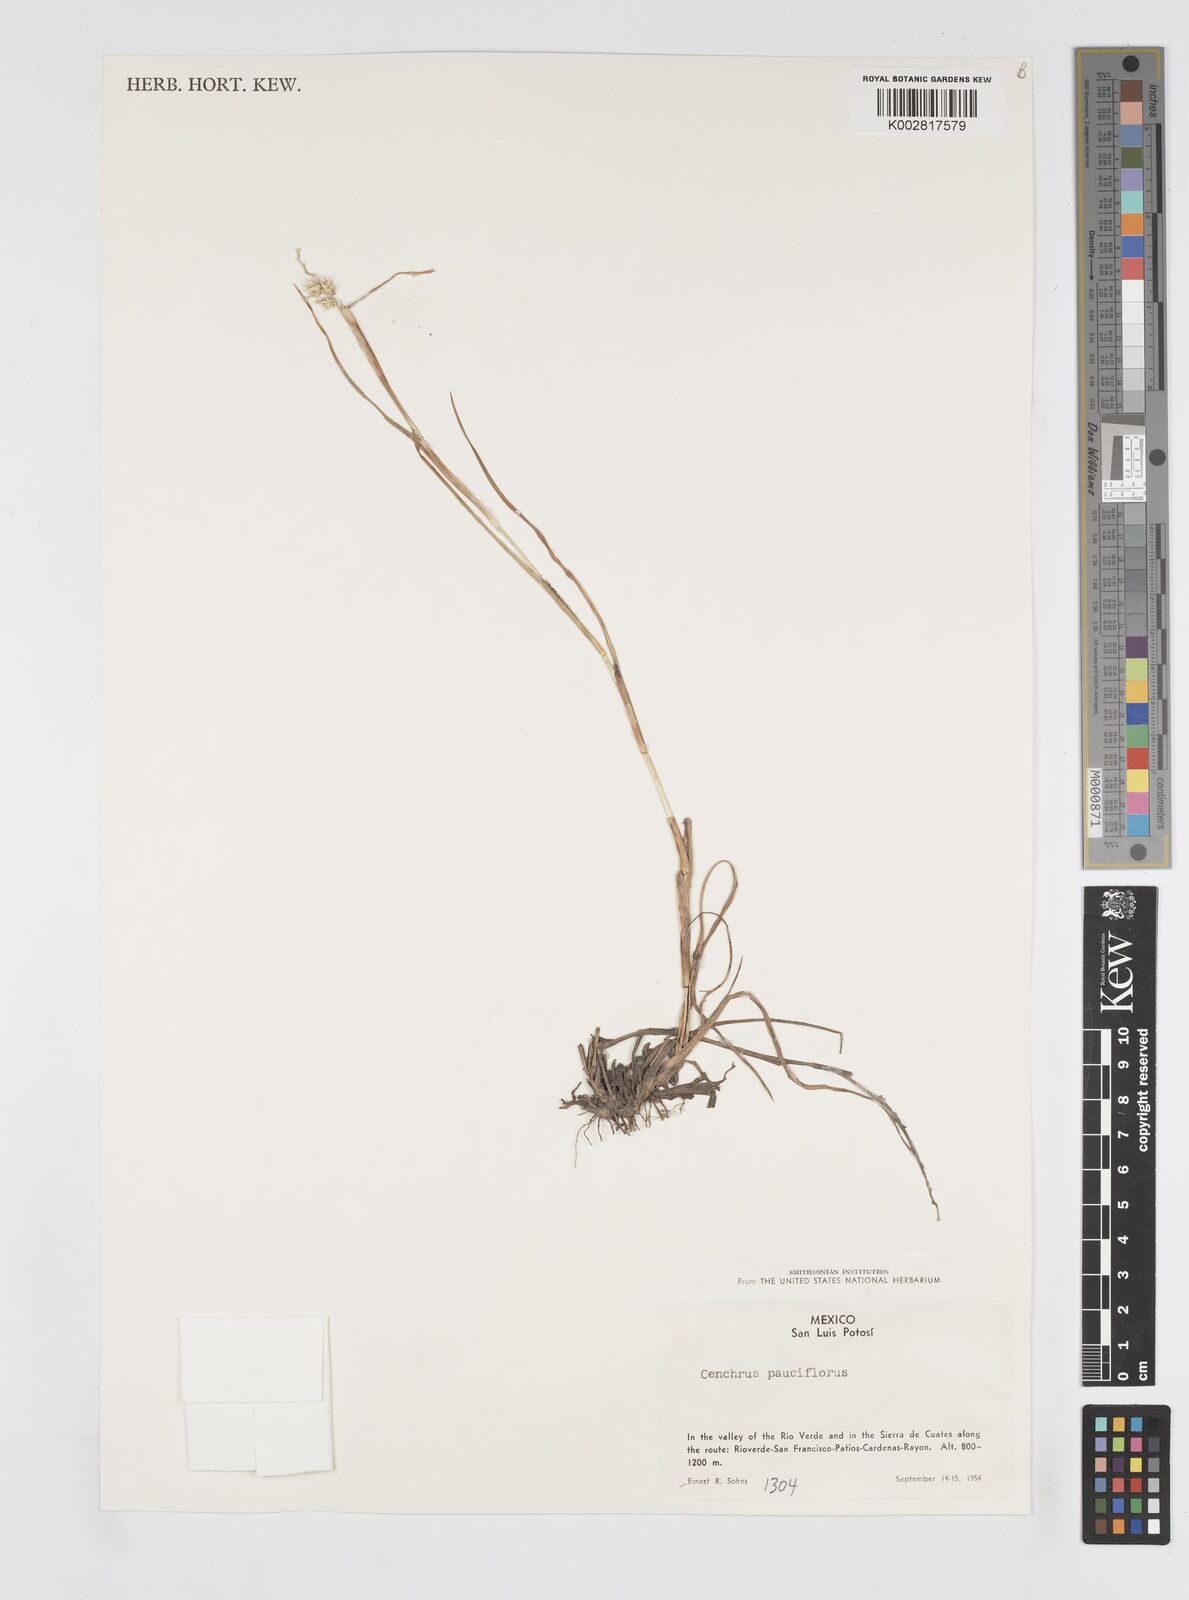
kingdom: Plantae
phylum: Tracheophyta
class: Liliopsida
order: Poales
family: Poaceae
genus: Cenchrus
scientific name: Cenchrus spinifex
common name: Coast sandbur
